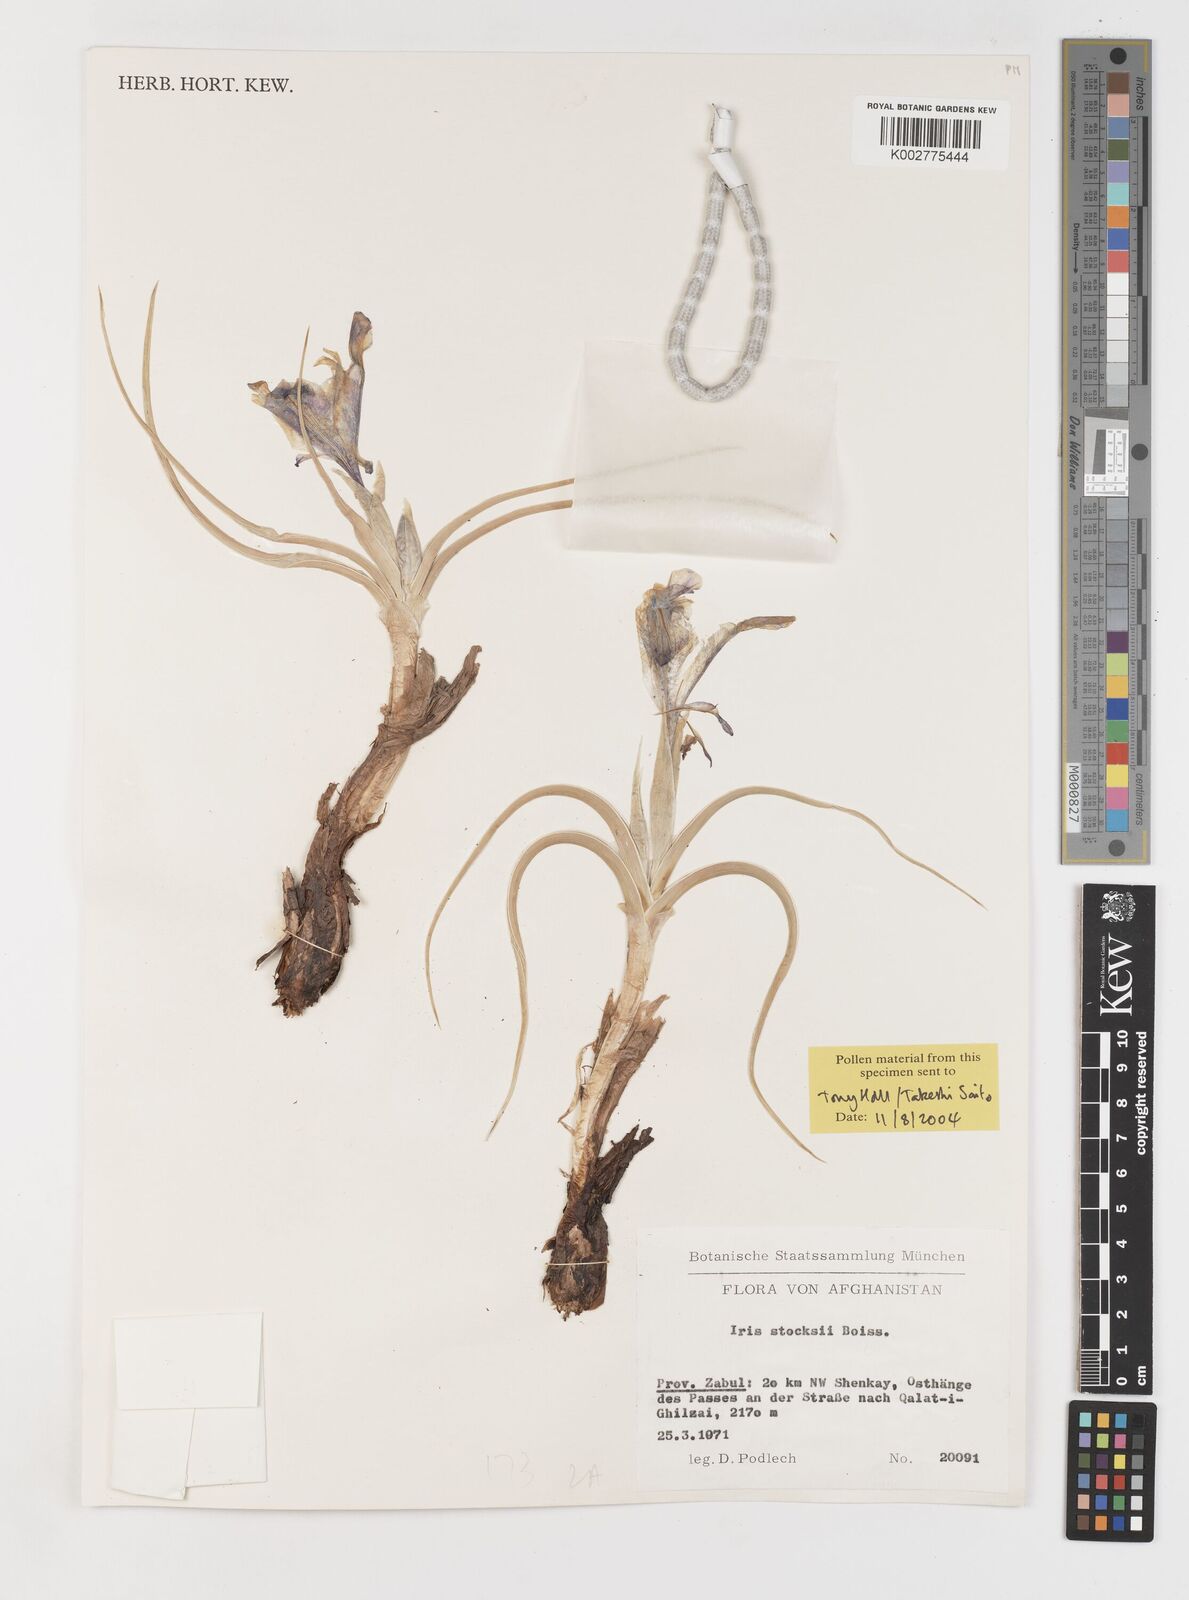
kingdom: Plantae
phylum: Tracheophyta
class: Liliopsida
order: Asparagales
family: Iridaceae
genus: Iris
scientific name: Iris stocksii
